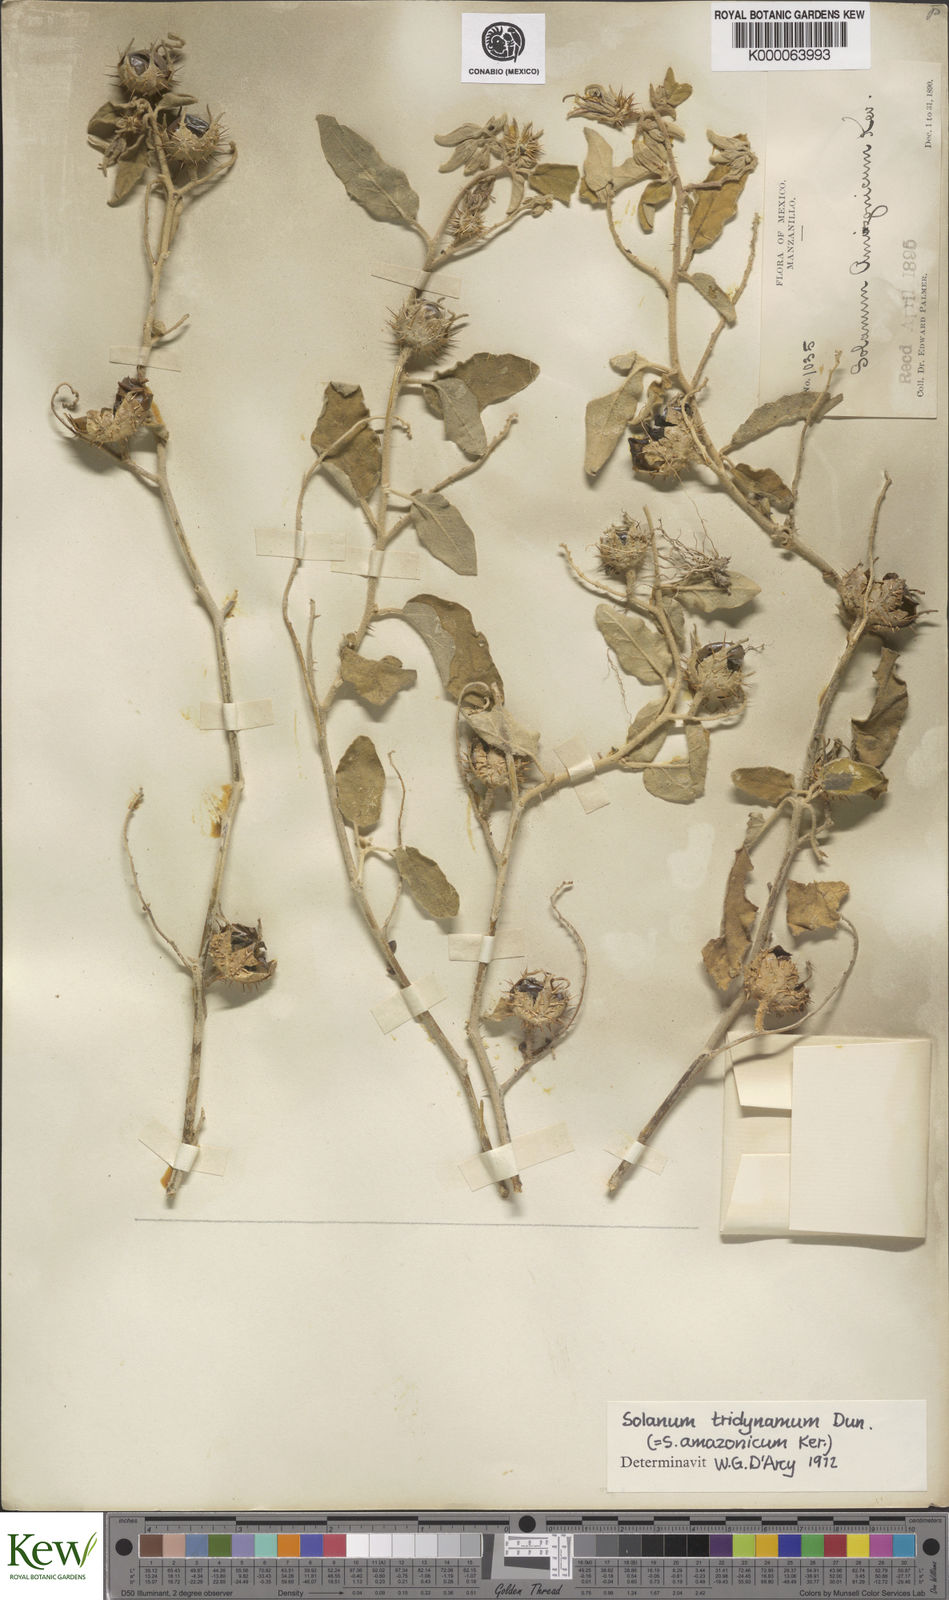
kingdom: Plantae
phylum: Tracheophyta
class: Magnoliopsida
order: Solanales
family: Solanaceae
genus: Solanum
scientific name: Solanum houstonii
